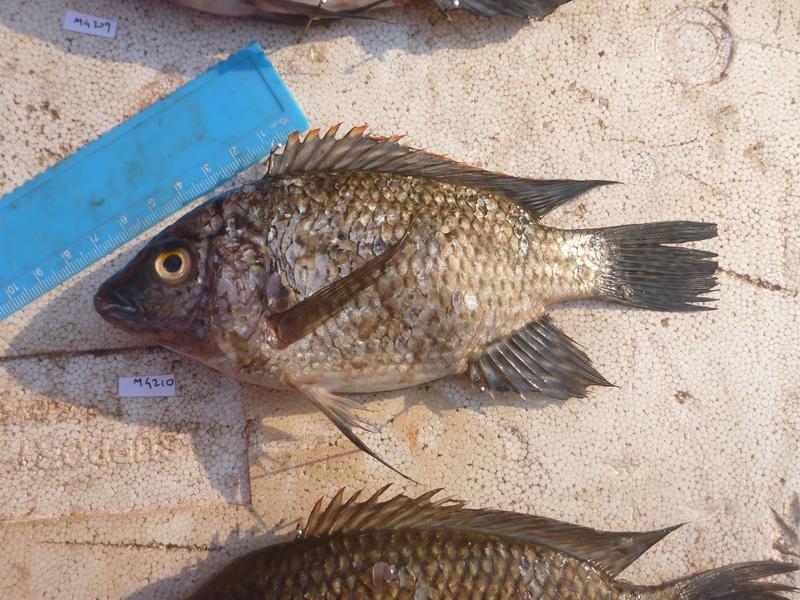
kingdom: Animalia
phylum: Chordata
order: Perciformes
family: Cichlidae
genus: Oreochromis
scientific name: Oreochromis karomo
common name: Karomo
